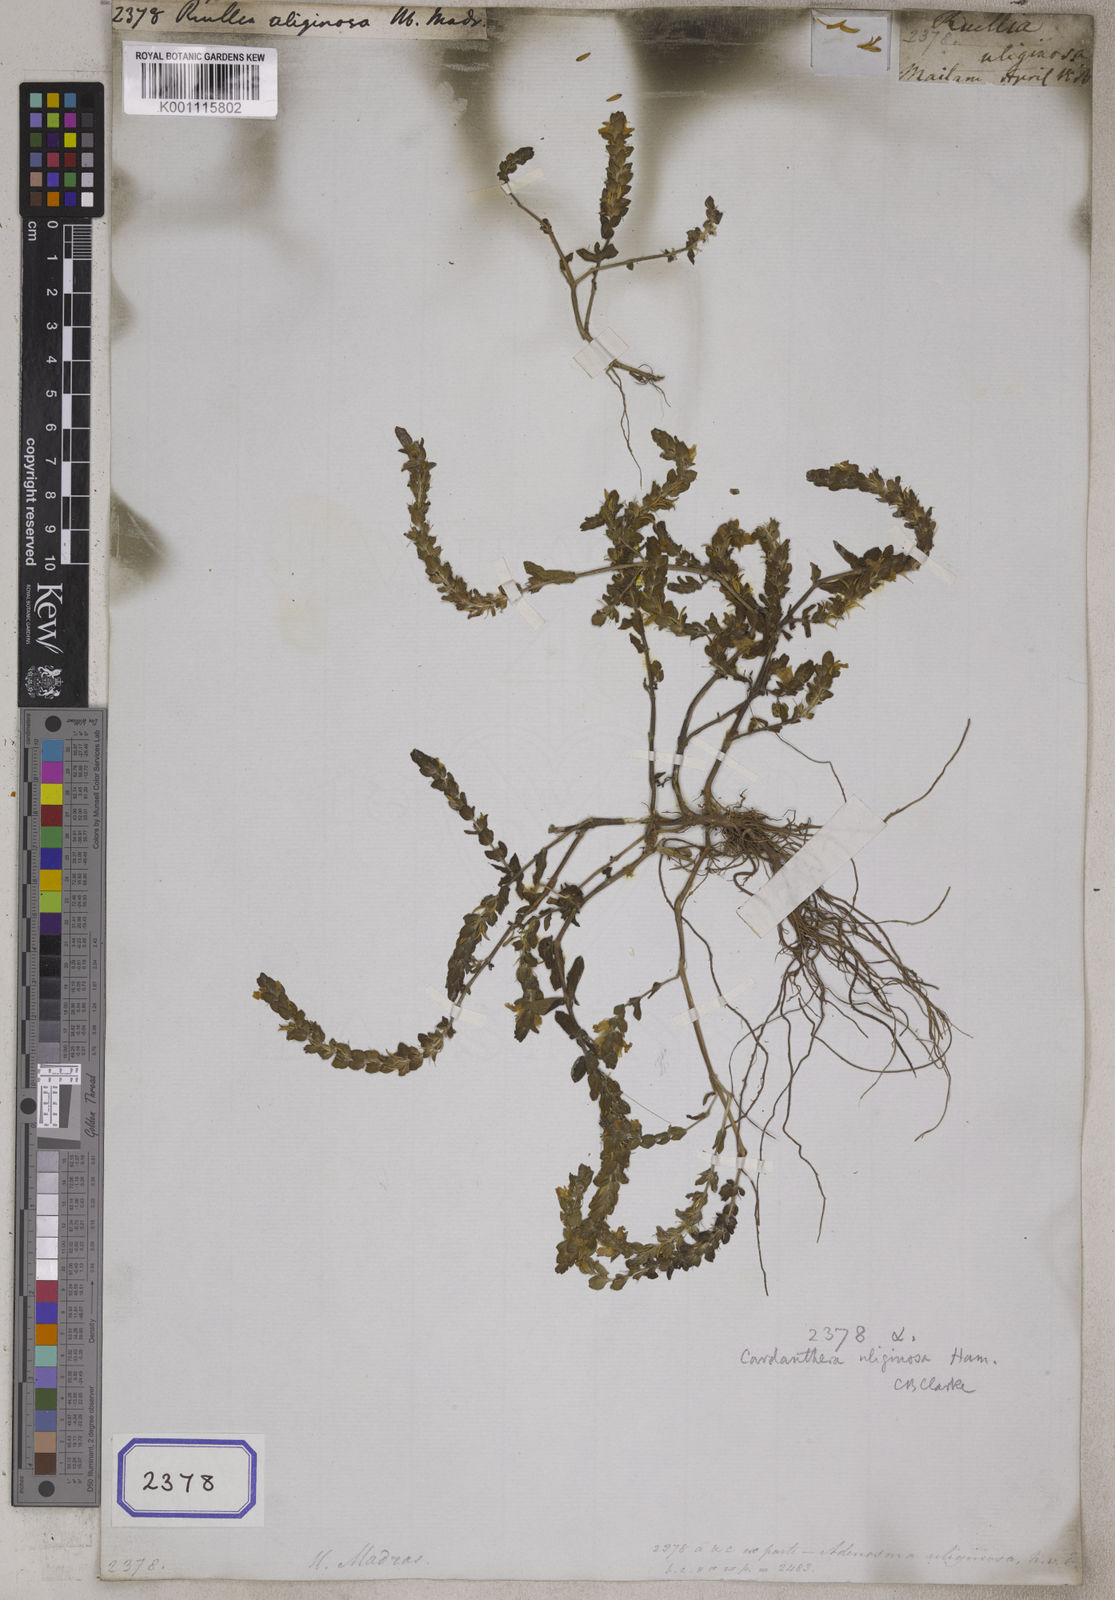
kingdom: Plantae
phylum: Tracheophyta
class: Magnoliopsida
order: Lamiales
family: Acanthaceae
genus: Hygrophila
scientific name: Hygrophila polysperma
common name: Indian swampweed
